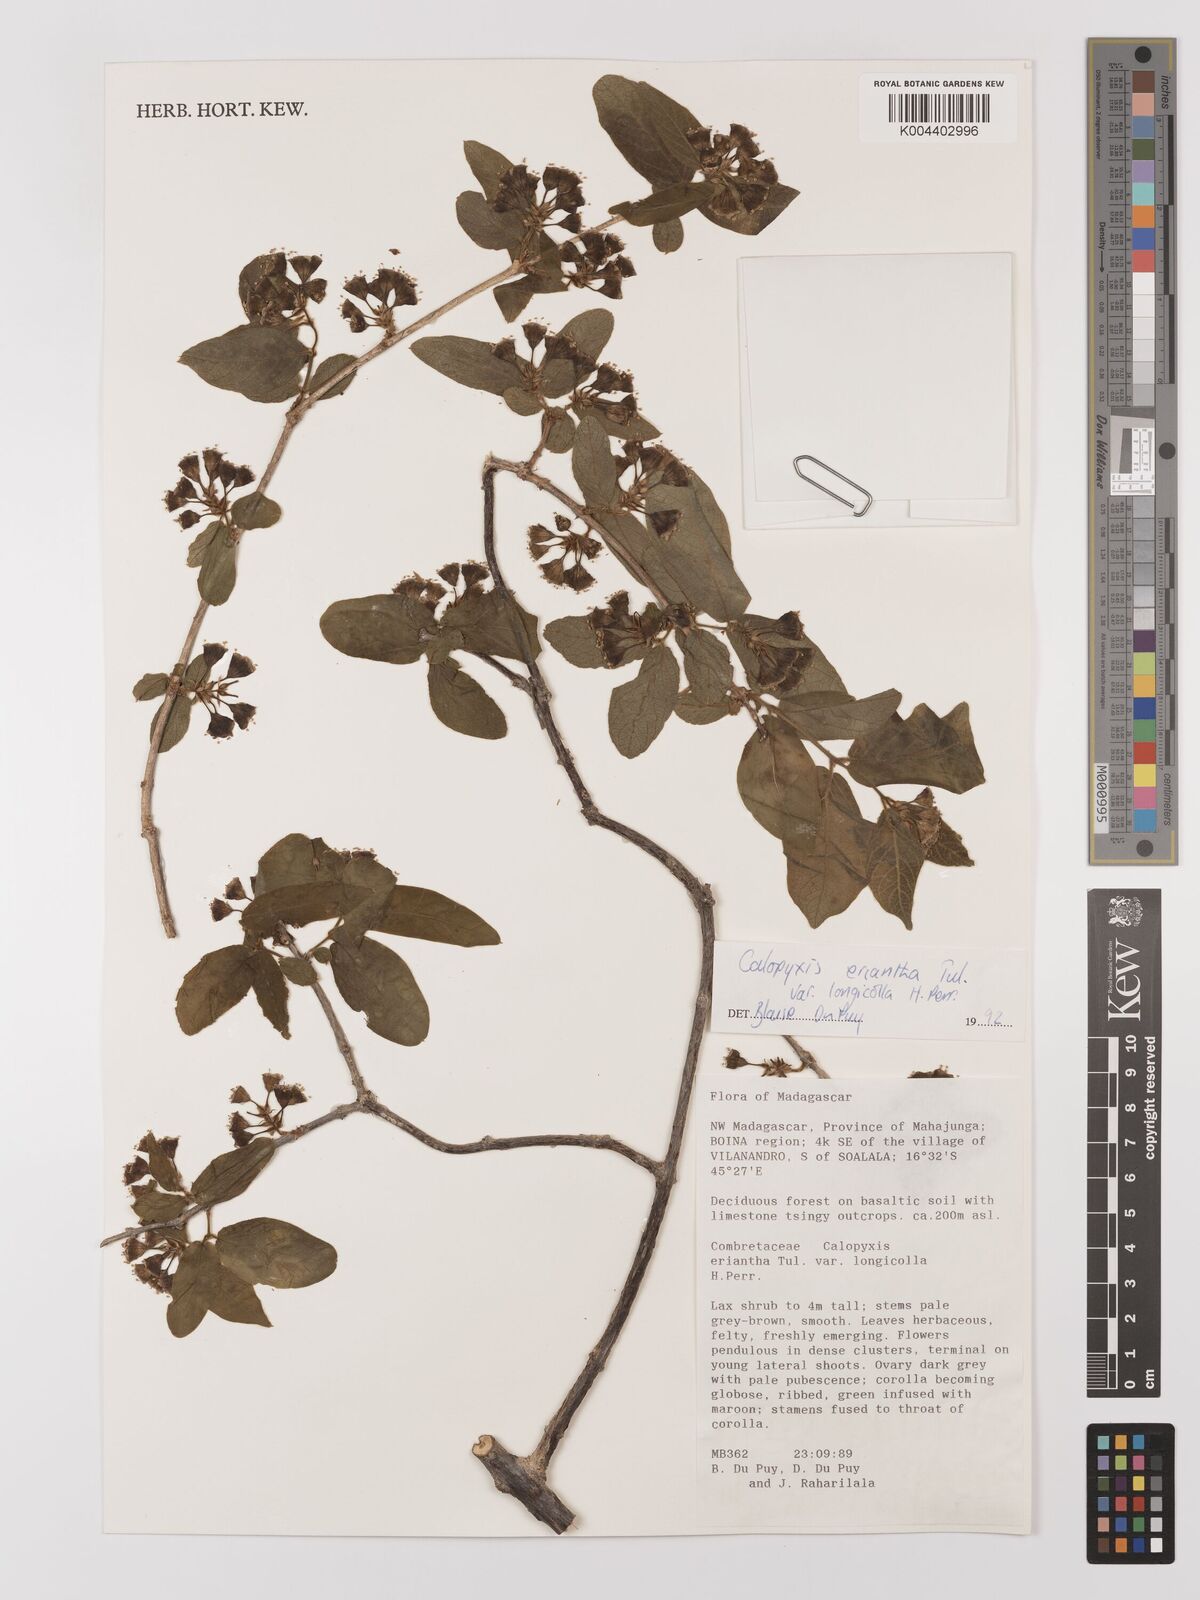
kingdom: Plantae
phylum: Tracheophyta
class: Magnoliopsida
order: Myrtales
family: Combretaceae
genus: Combretum
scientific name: Combretum longicollum
